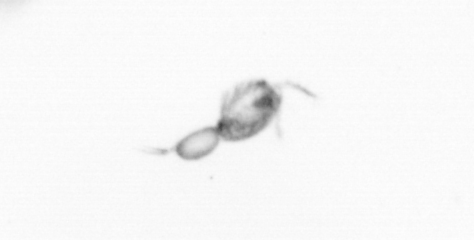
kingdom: Animalia
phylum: Arthropoda
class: Copepoda
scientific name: Copepoda
